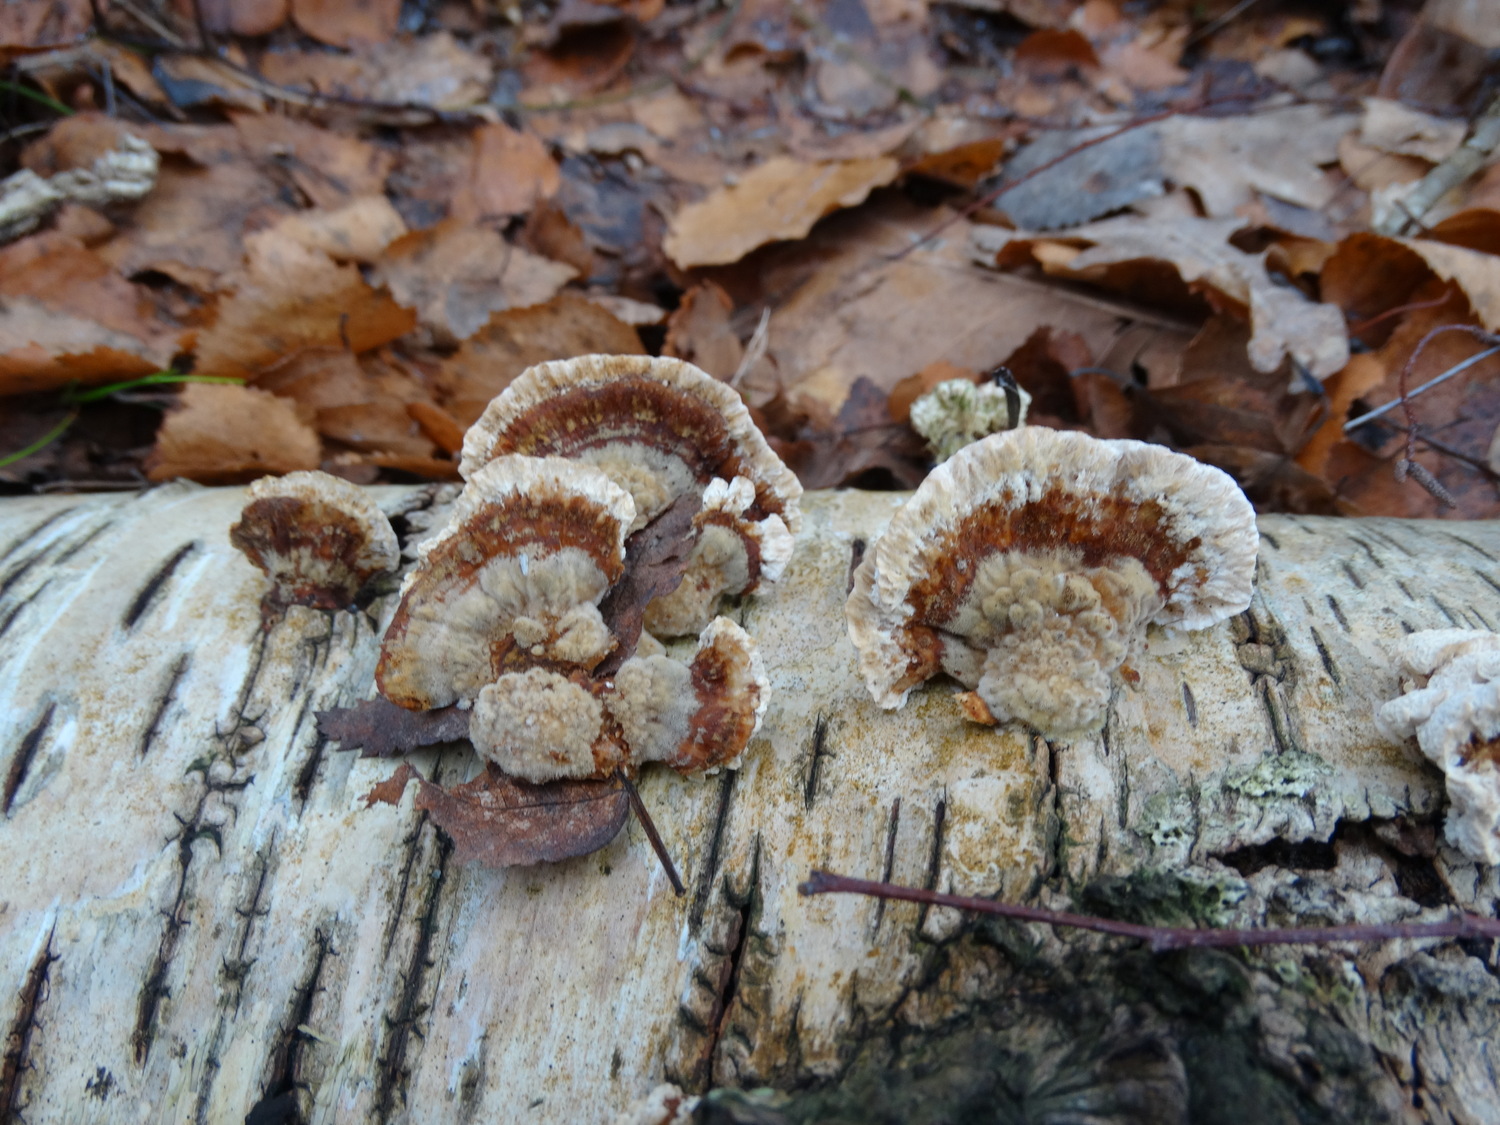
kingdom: Fungi
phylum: Basidiomycota
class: Agaricomycetes
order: Polyporales
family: Polyporaceae
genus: Trametes
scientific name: Trametes ochracea
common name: bæltet læderporesvamp
